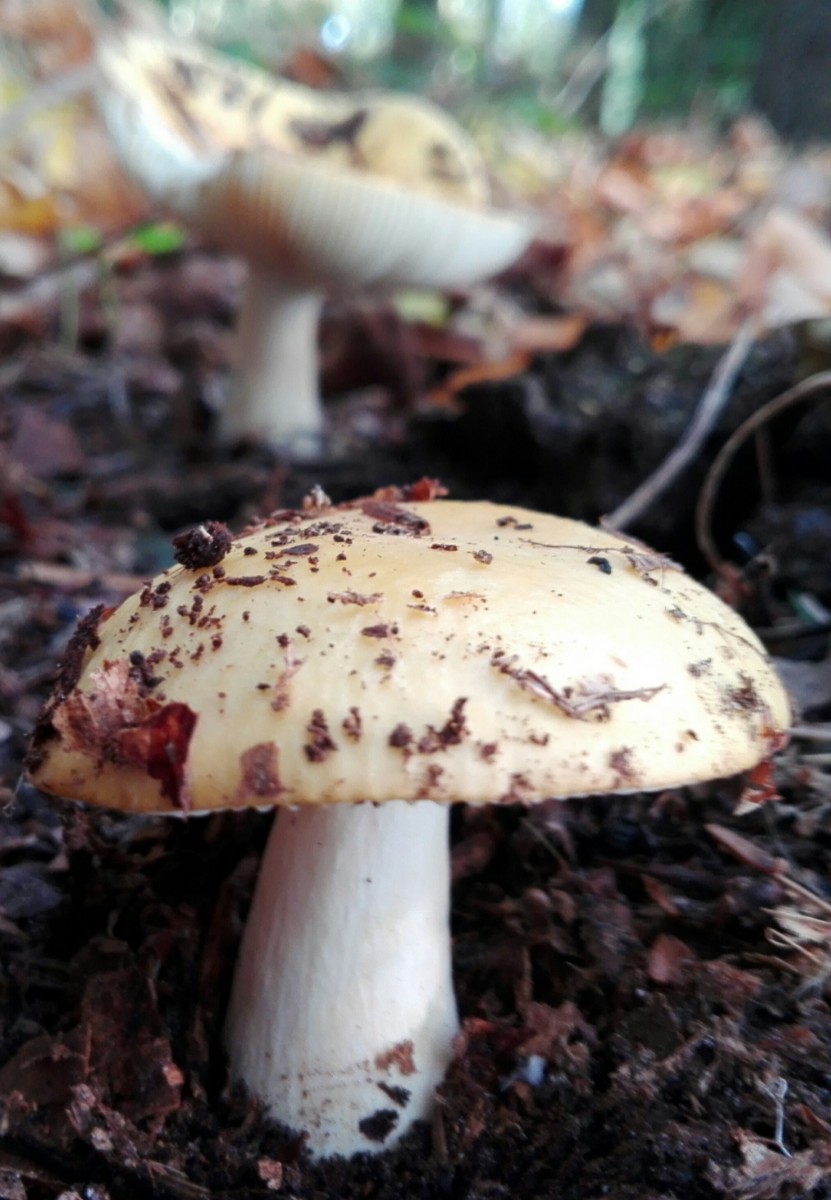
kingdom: Fungi
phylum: Basidiomycota
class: Agaricomycetes
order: Russulales
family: Russulaceae
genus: Russula
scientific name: Russula ochroleuca
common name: okkergul skørhat
